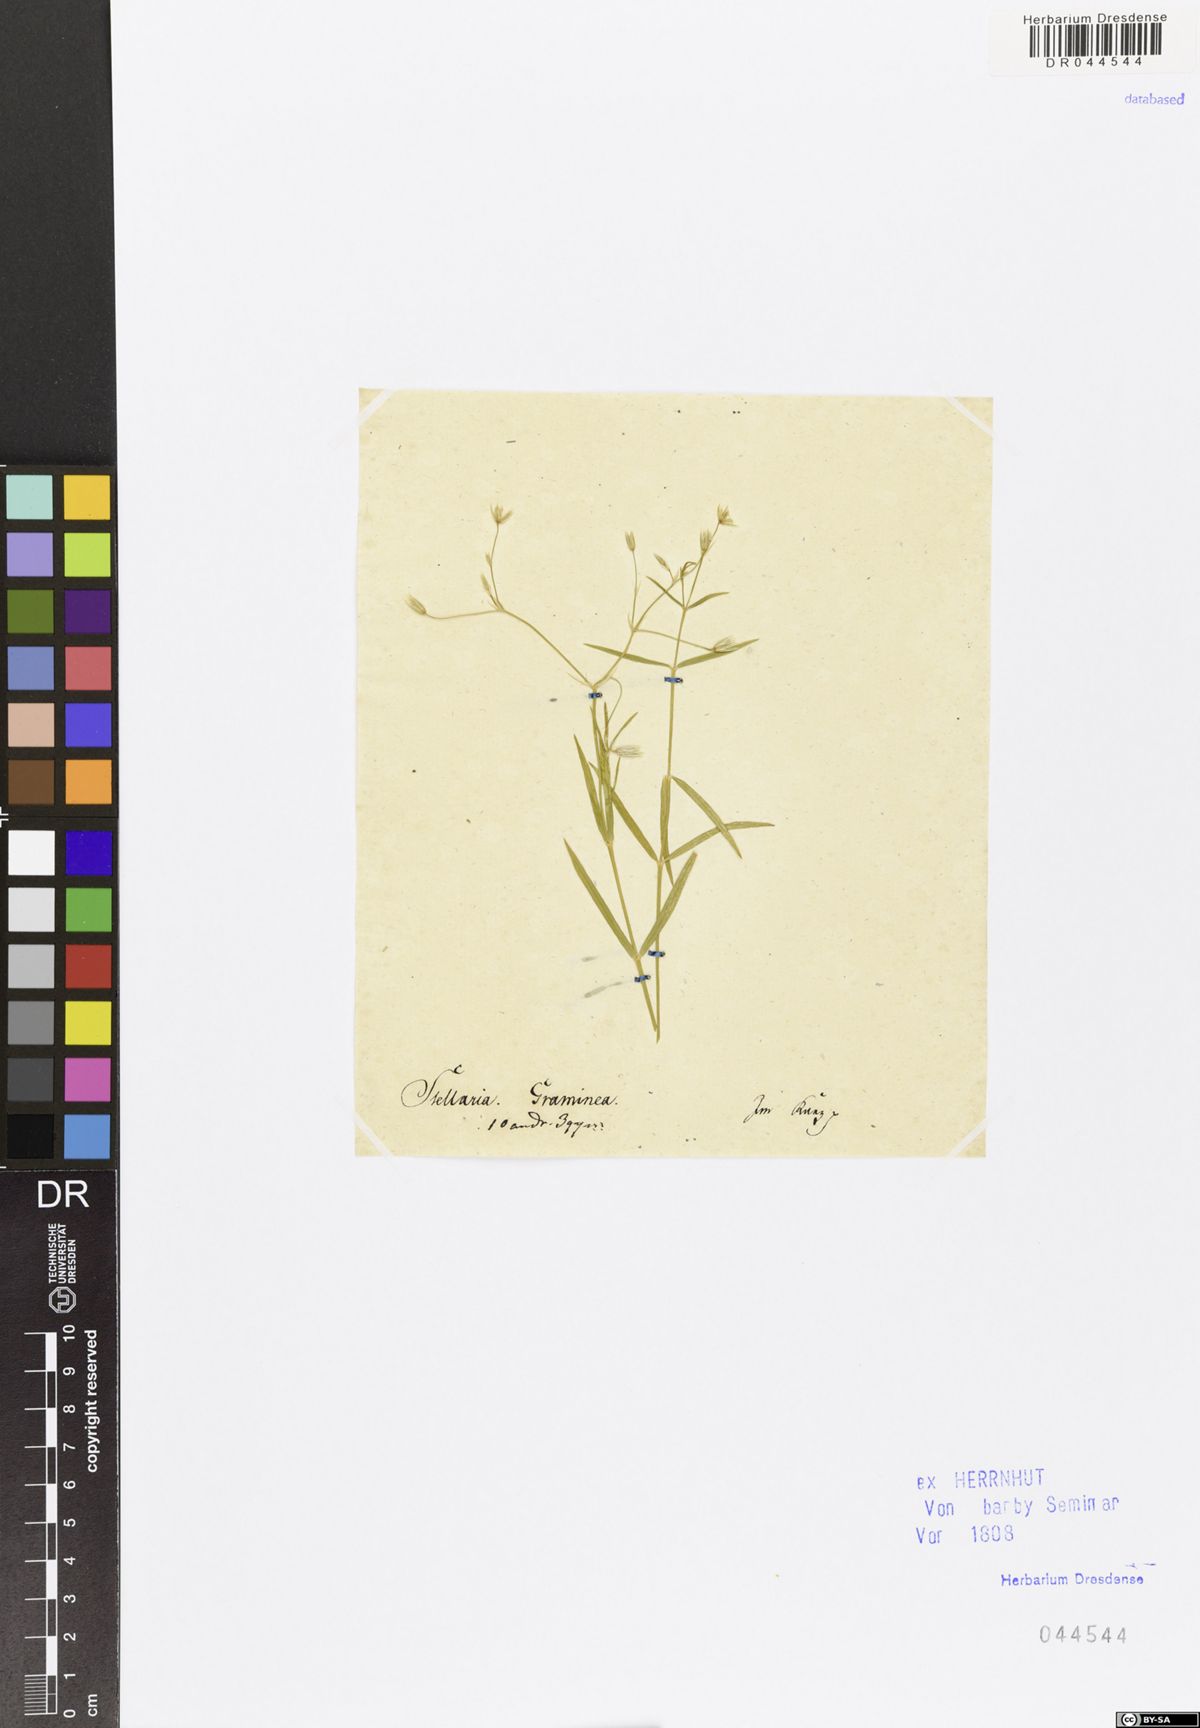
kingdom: Plantae
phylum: Tracheophyta
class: Magnoliopsida
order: Caryophyllales
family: Caryophyllaceae
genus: Stellaria
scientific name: Stellaria graminea
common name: Grass-like starwort
